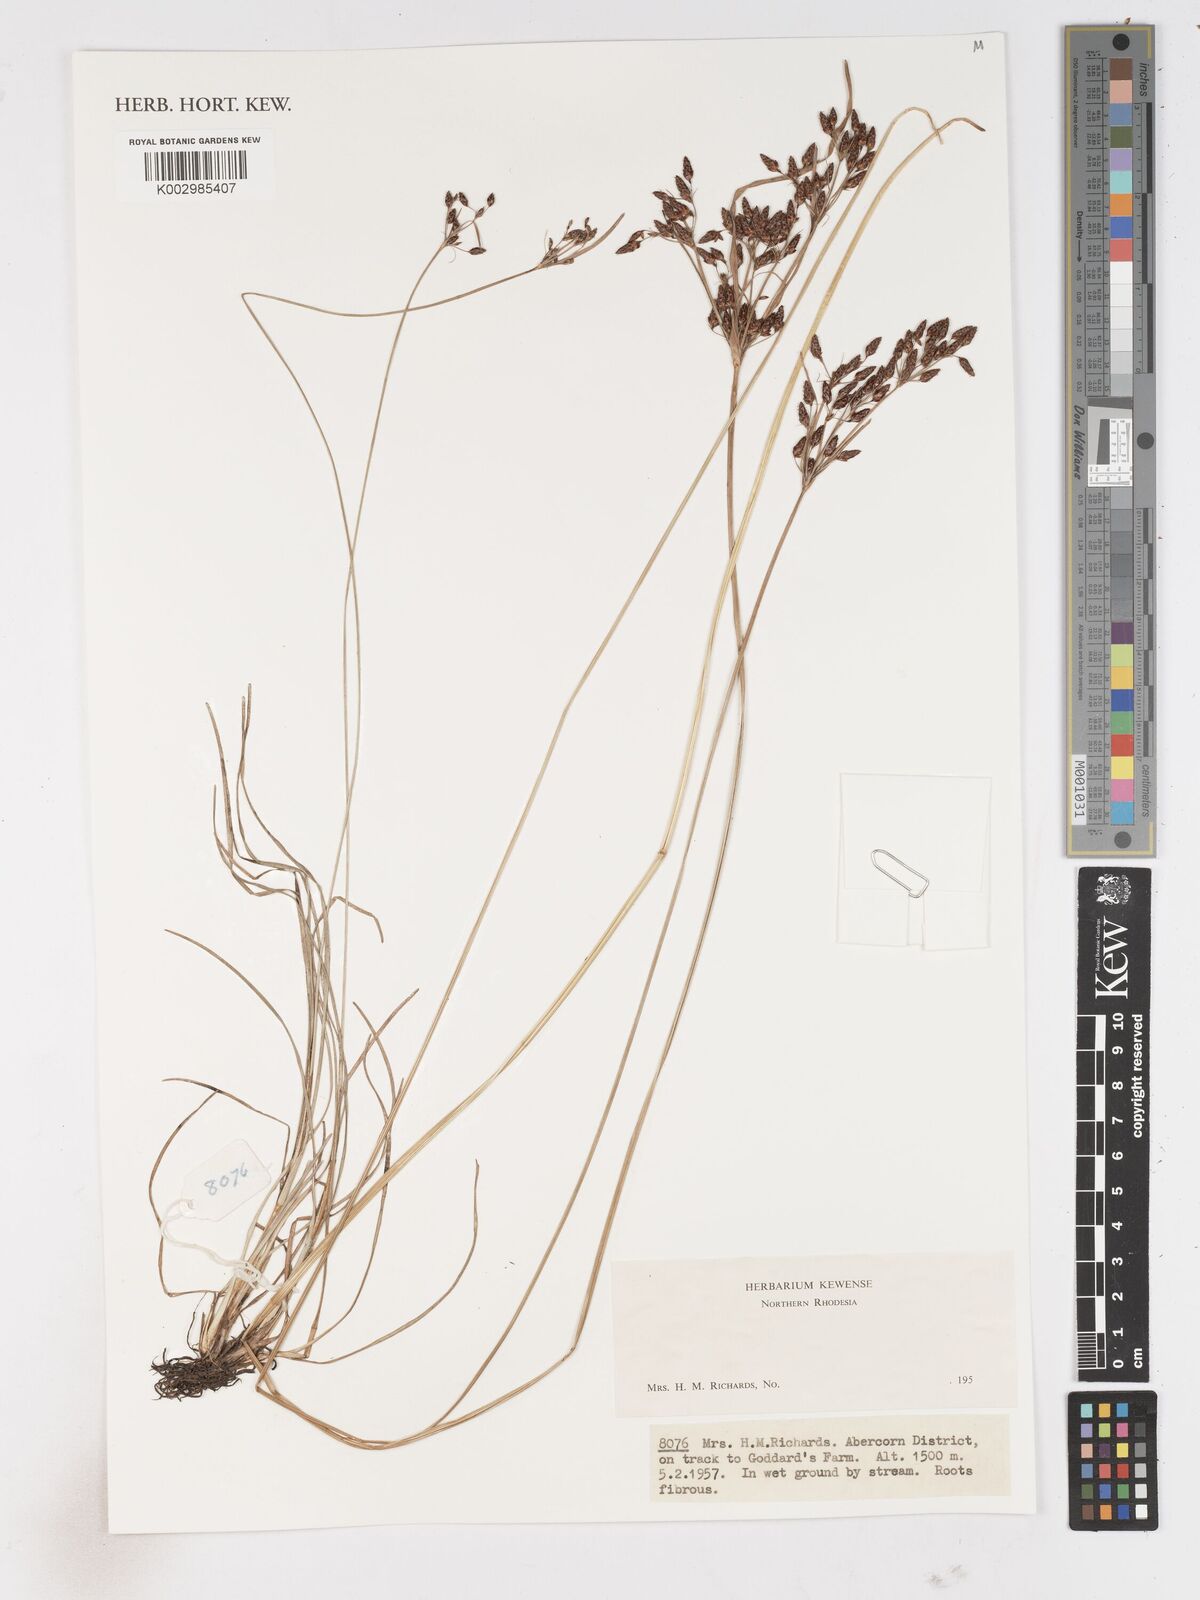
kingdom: Plantae
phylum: Tracheophyta
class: Liliopsida
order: Poales
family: Cyperaceae
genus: Fimbristylis
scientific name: Fimbristylis
